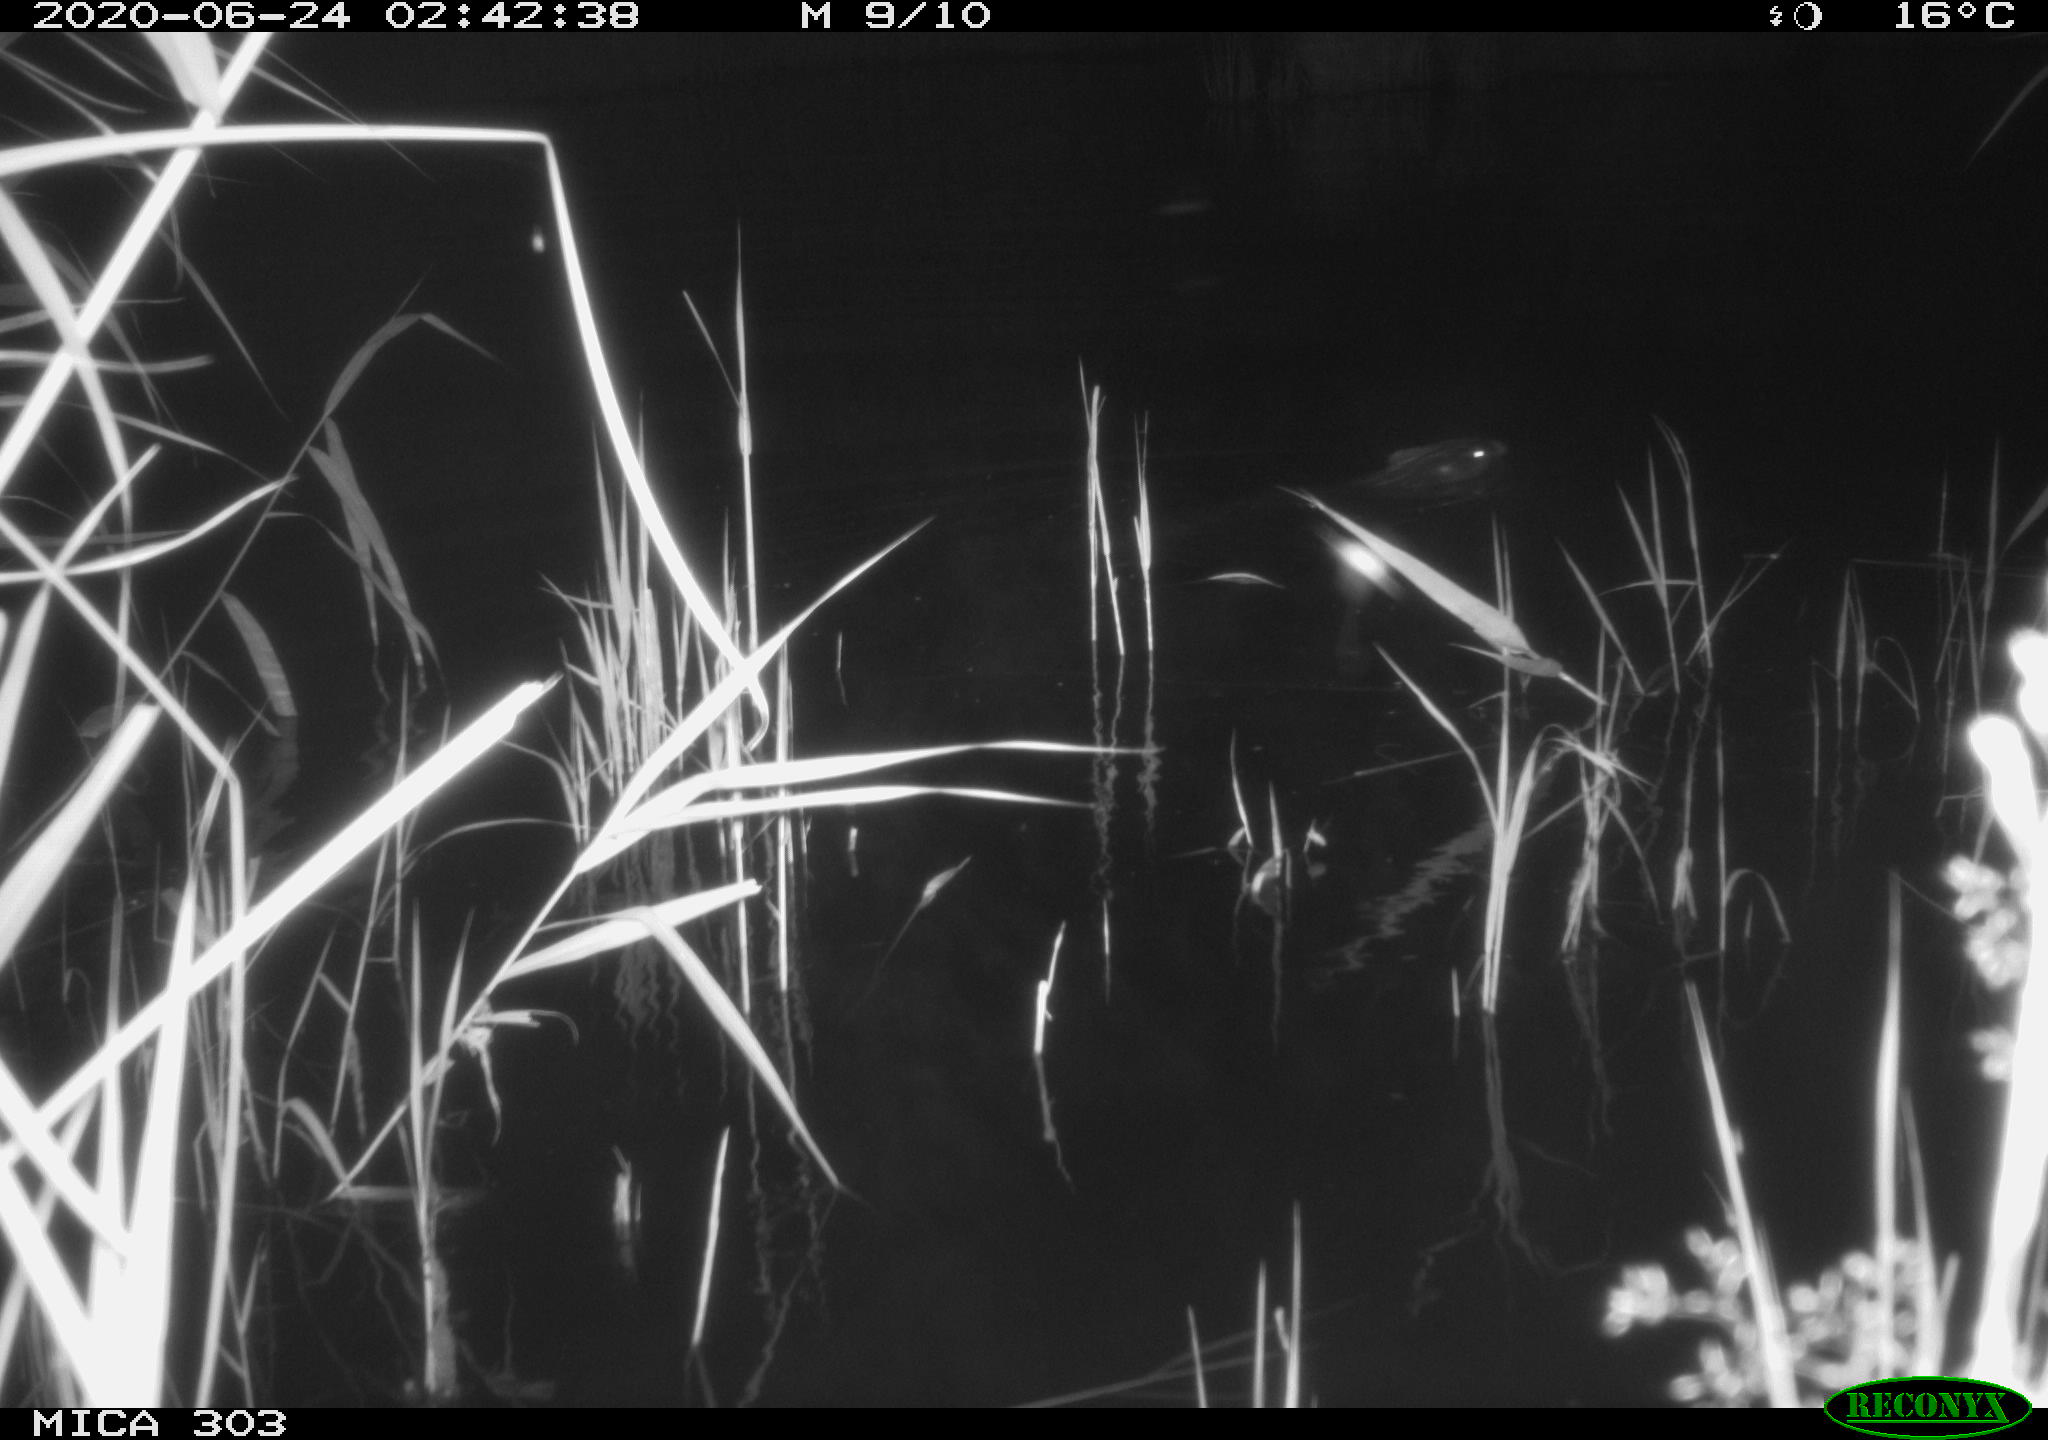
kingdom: Animalia
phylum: Chordata
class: Mammalia
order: Rodentia
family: Castoridae
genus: Castor
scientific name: Castor fiber
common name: Eurasian beaver
